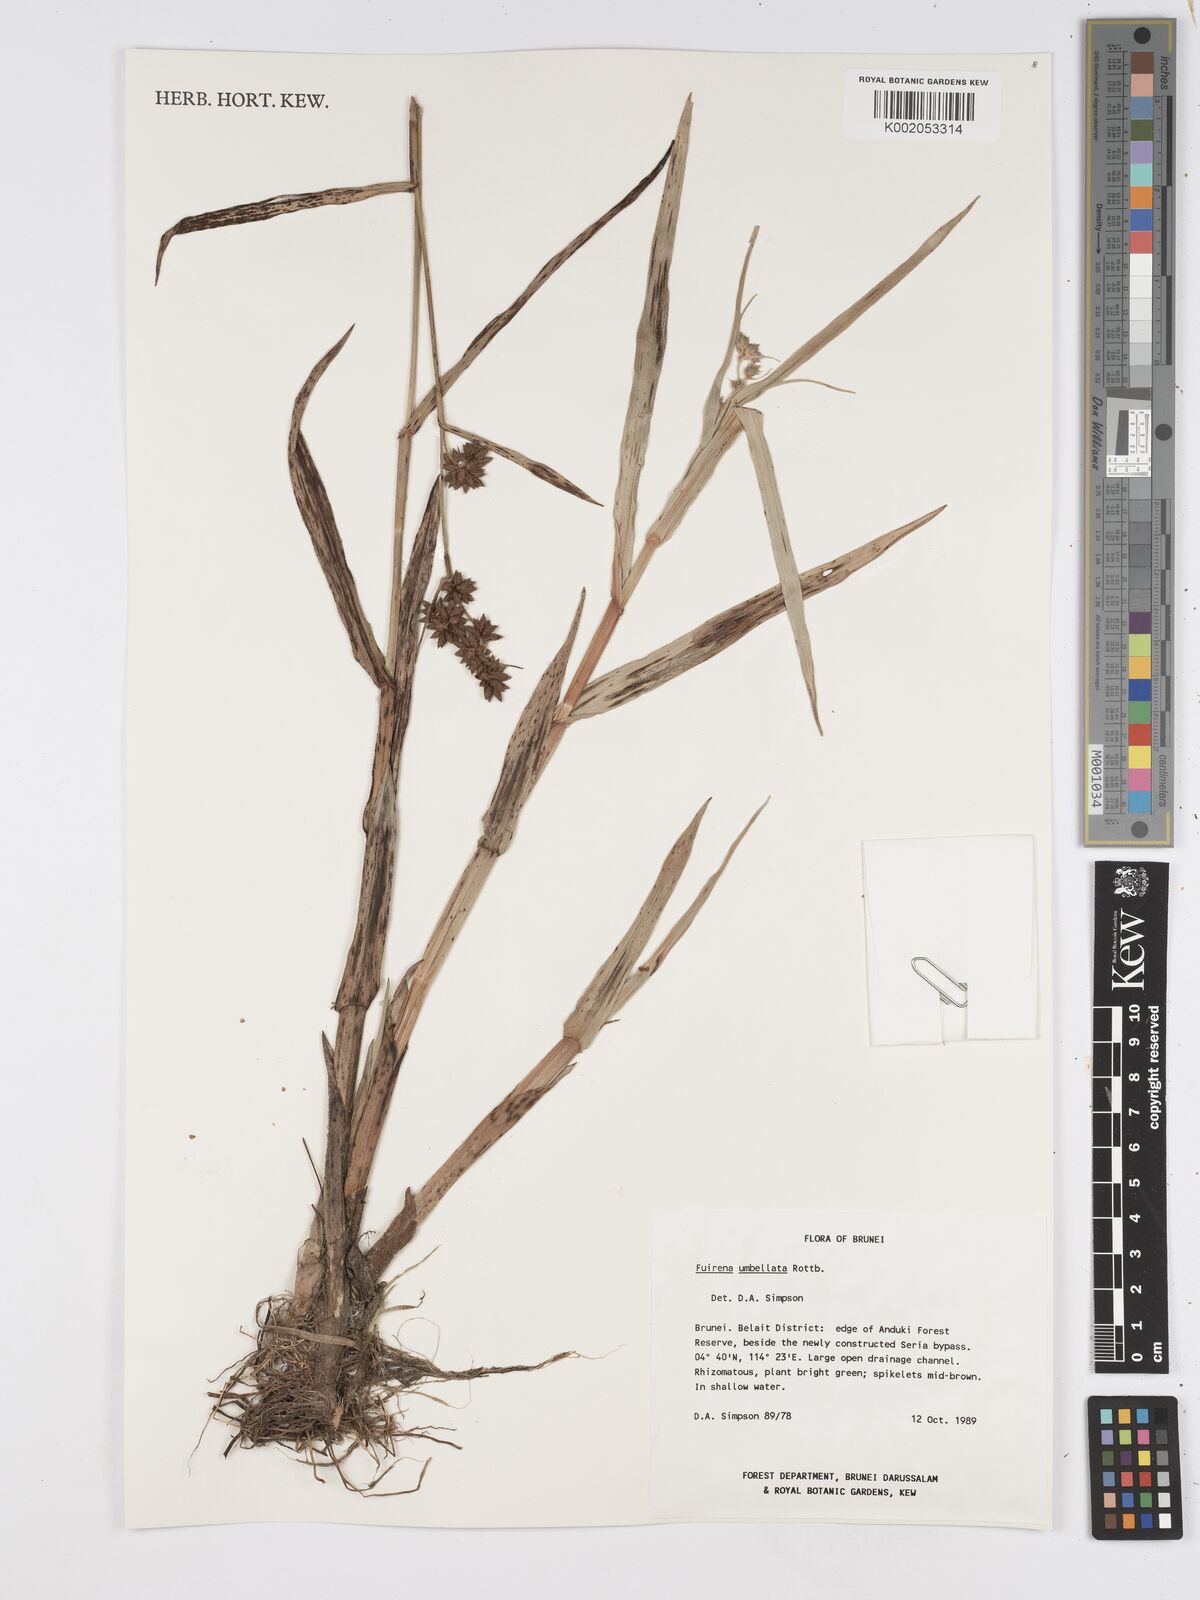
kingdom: Plantae
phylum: Tracheophyta
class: Liliopsida
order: Poales
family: Cyperaceae
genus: Fuirena
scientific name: Fuirena umbellata
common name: Yefen
